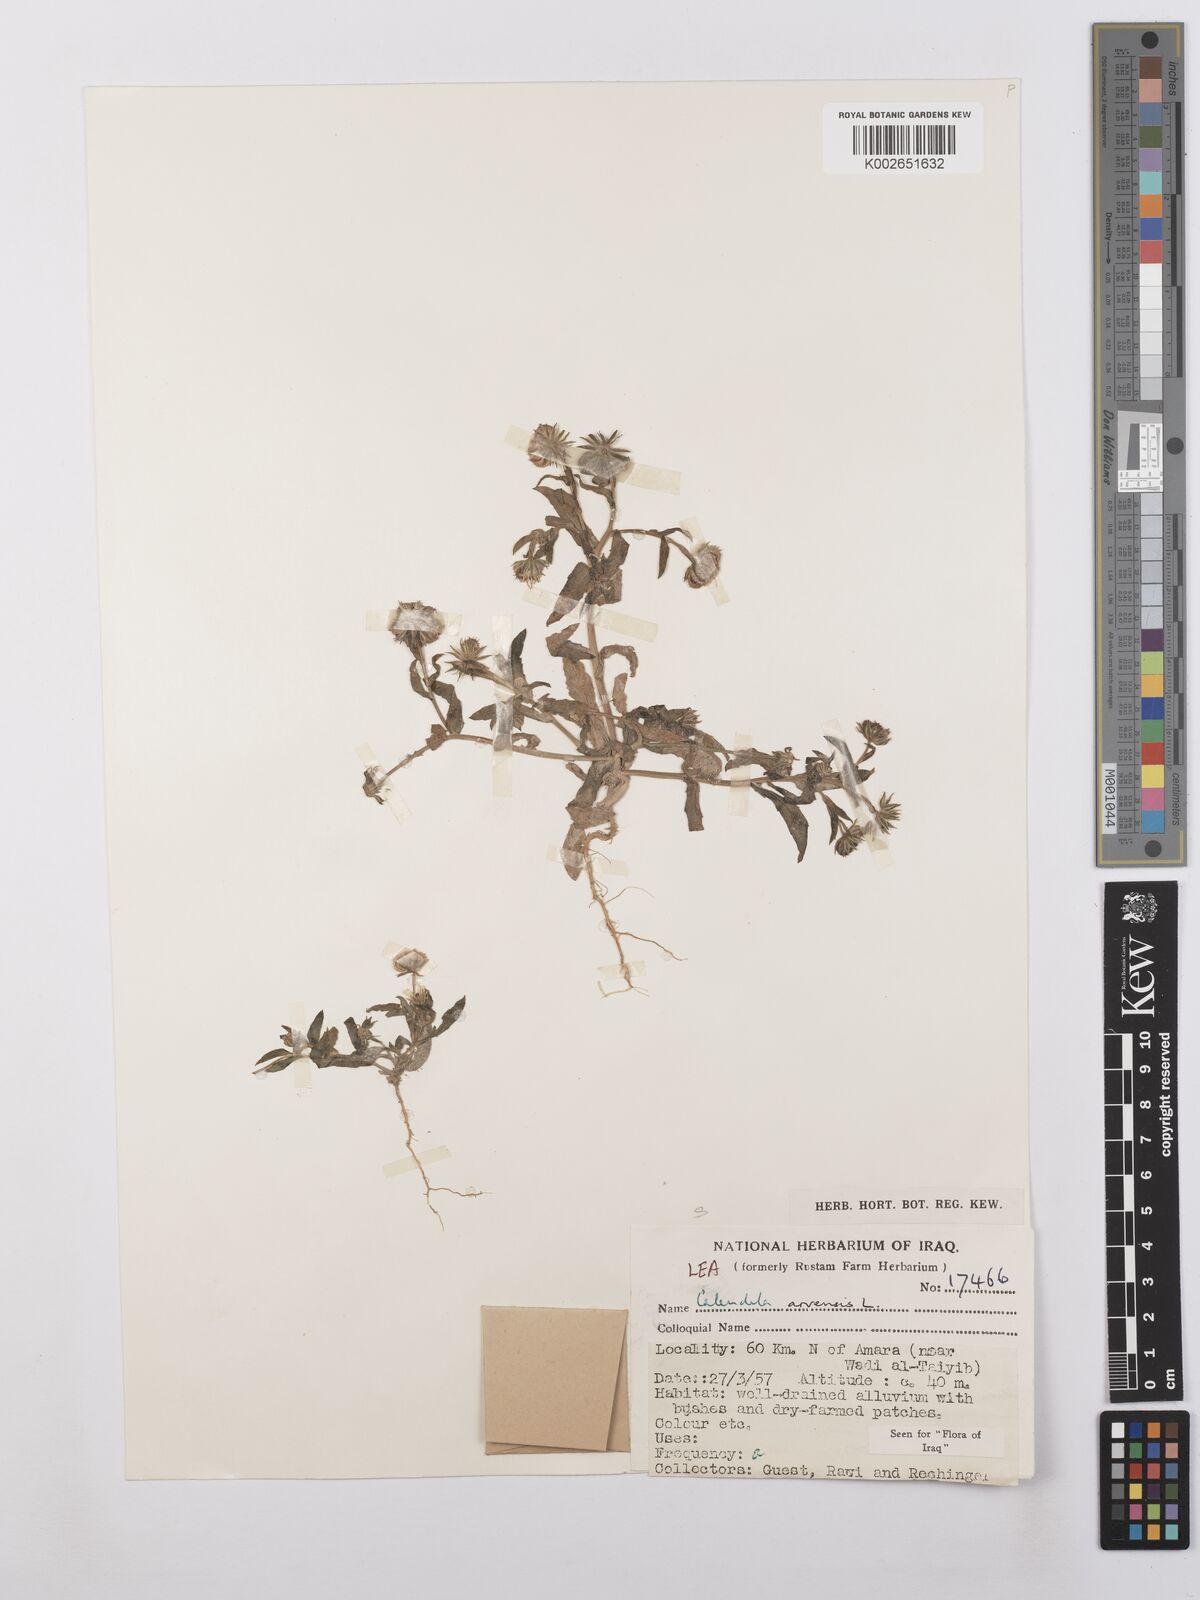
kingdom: Plantae
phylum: Tracheophyta
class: Magnoliopsida
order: Asterales
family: Asteraceae
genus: Calendula
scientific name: Calendula arvensis
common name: Field marigold
